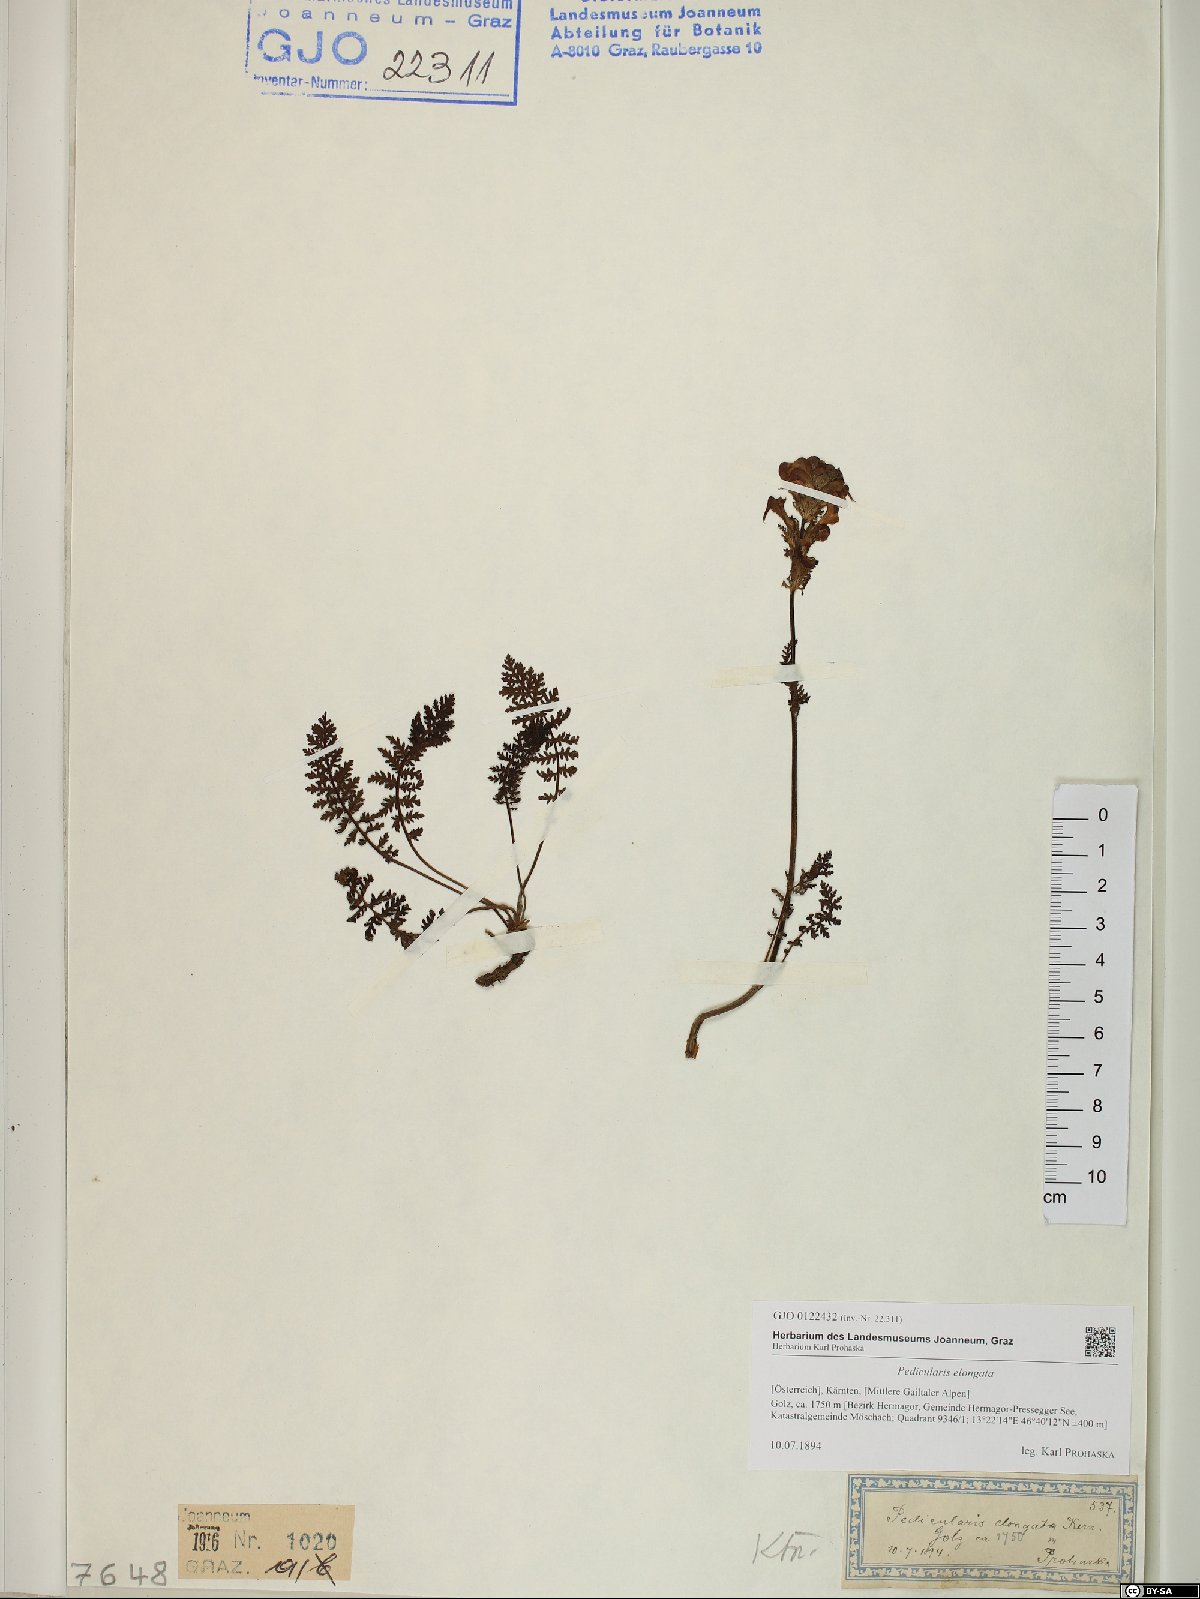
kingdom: Plantae
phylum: Tracheophyta
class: Magnoliopsida
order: Lamiales
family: Orobanchaceae
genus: Pedicularis
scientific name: Pedicularis elongata
